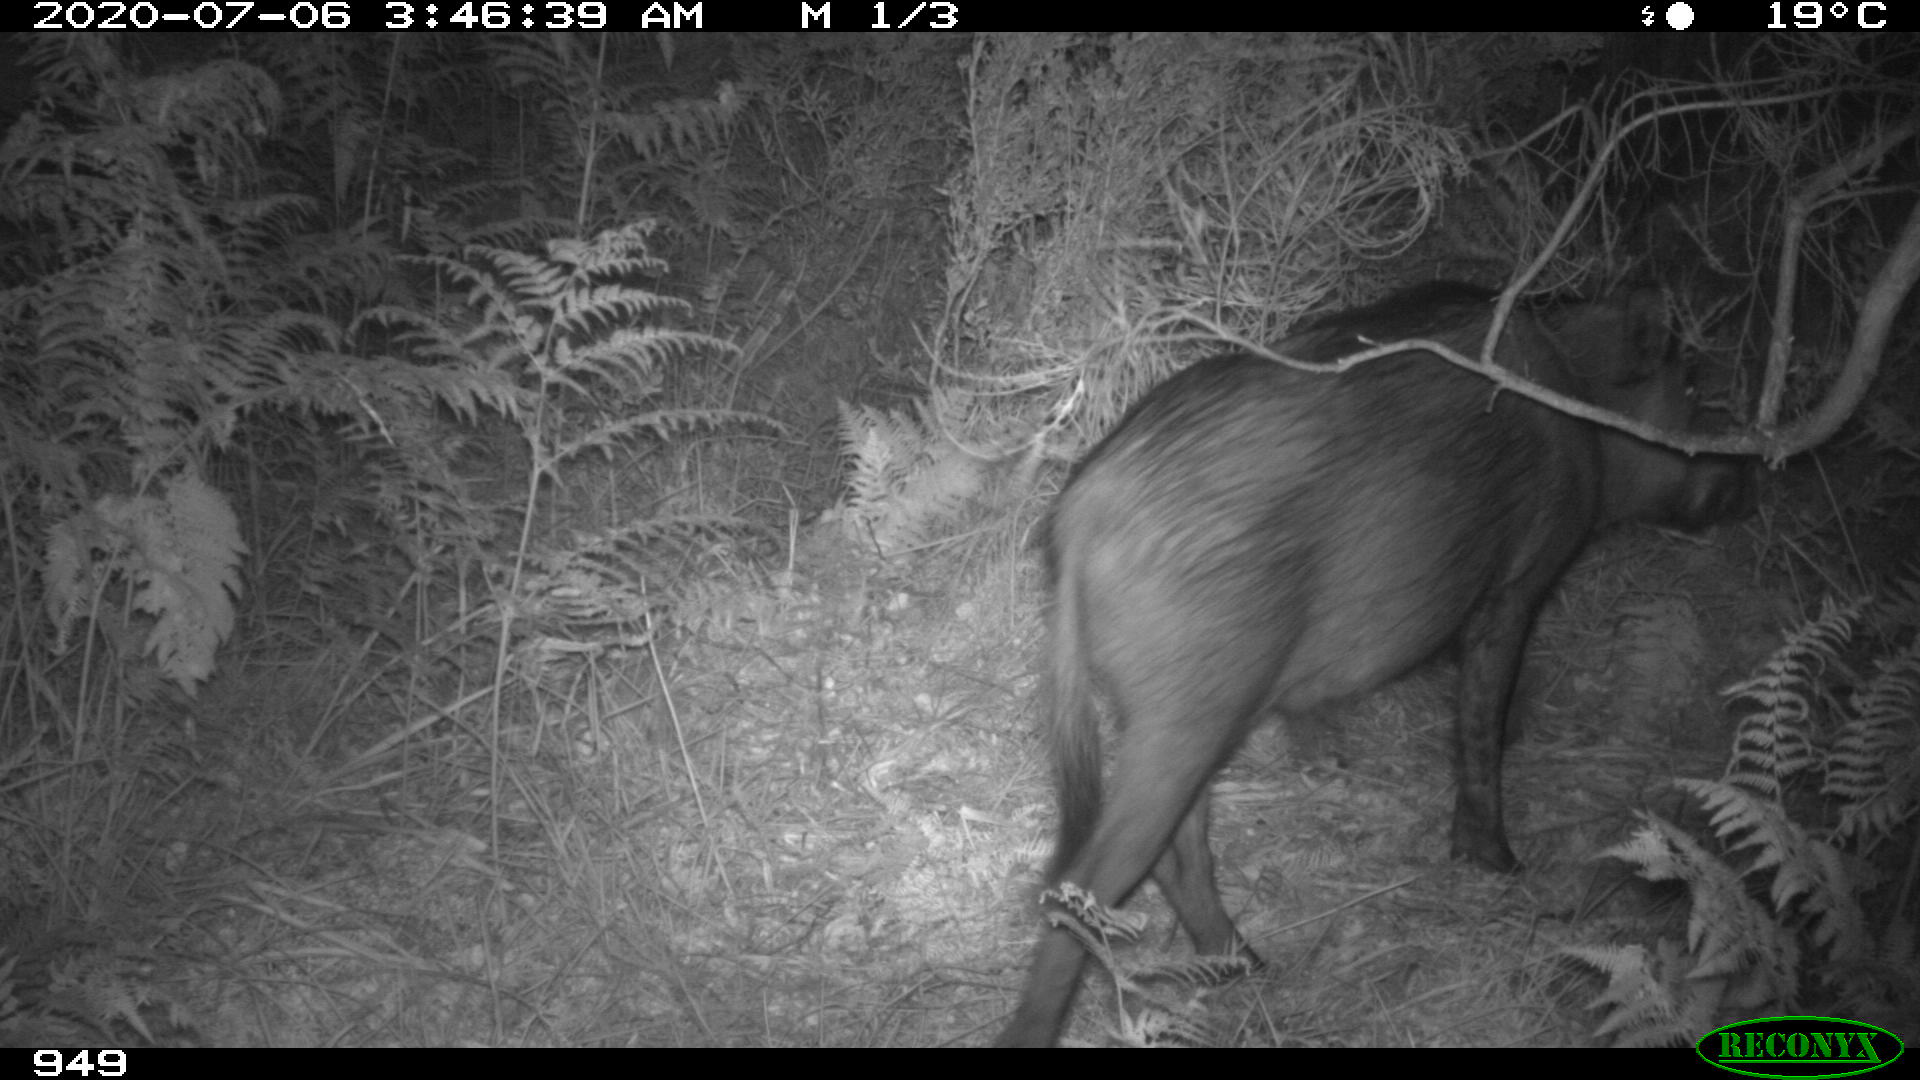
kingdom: Animalia
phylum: Chordata
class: Mammalia
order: Artiodactyla
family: Suidae
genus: Sus
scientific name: Sus scrofa
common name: Wild boar
